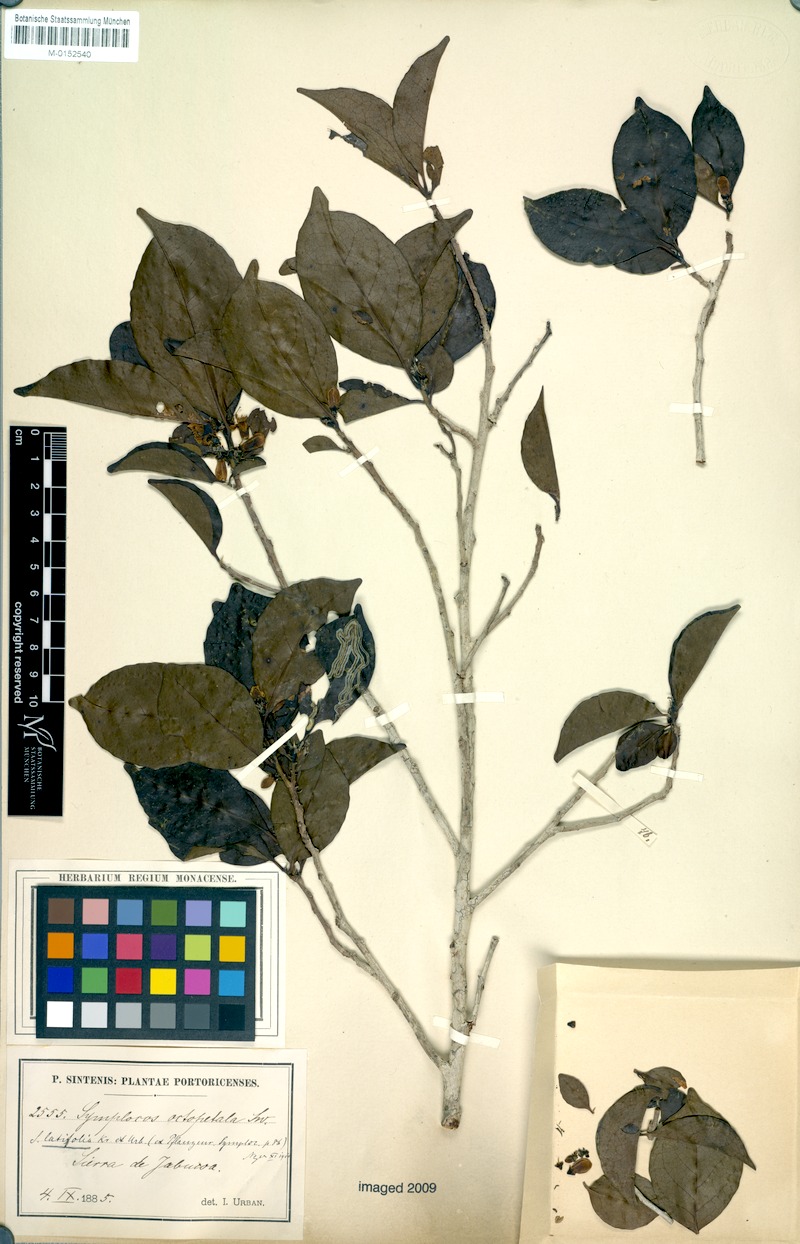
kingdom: Plantae
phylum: Tracheophyta
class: Magnoliopsida
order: Ericales
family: Symplocaceae
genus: Symplocos
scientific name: Symplocos latifolia
